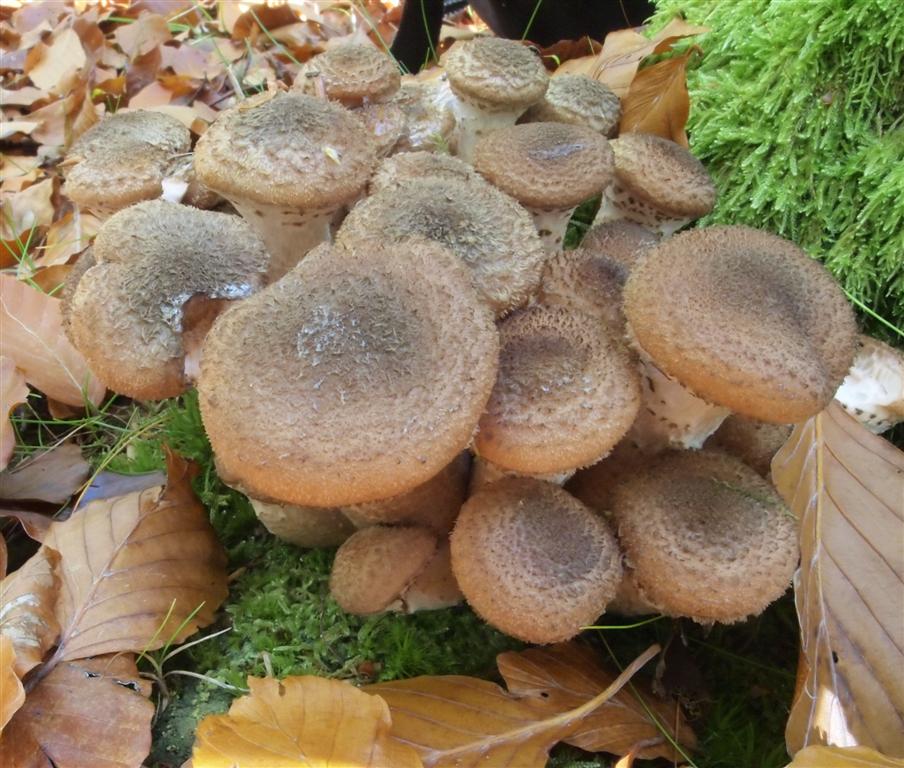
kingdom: Fungi
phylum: Basidiomycota
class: Agaricomycetes
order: Agaricales
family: Physalacriaceae
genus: Armillaria
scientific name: Armillaria lutea
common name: køllestokket honningsvamp
